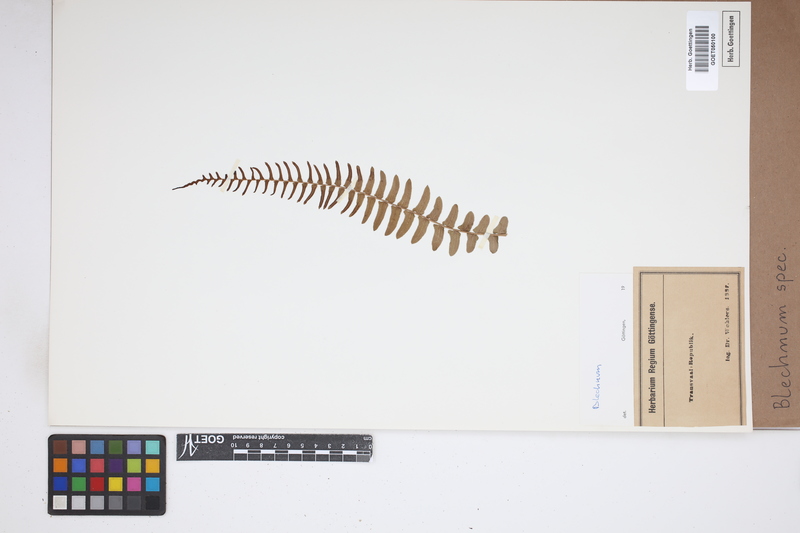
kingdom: Plantae
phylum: Tracheophyta
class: Polypodiopsida
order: Polypodiales
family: Blechnaceae
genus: Blechnum
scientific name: Blechnum
